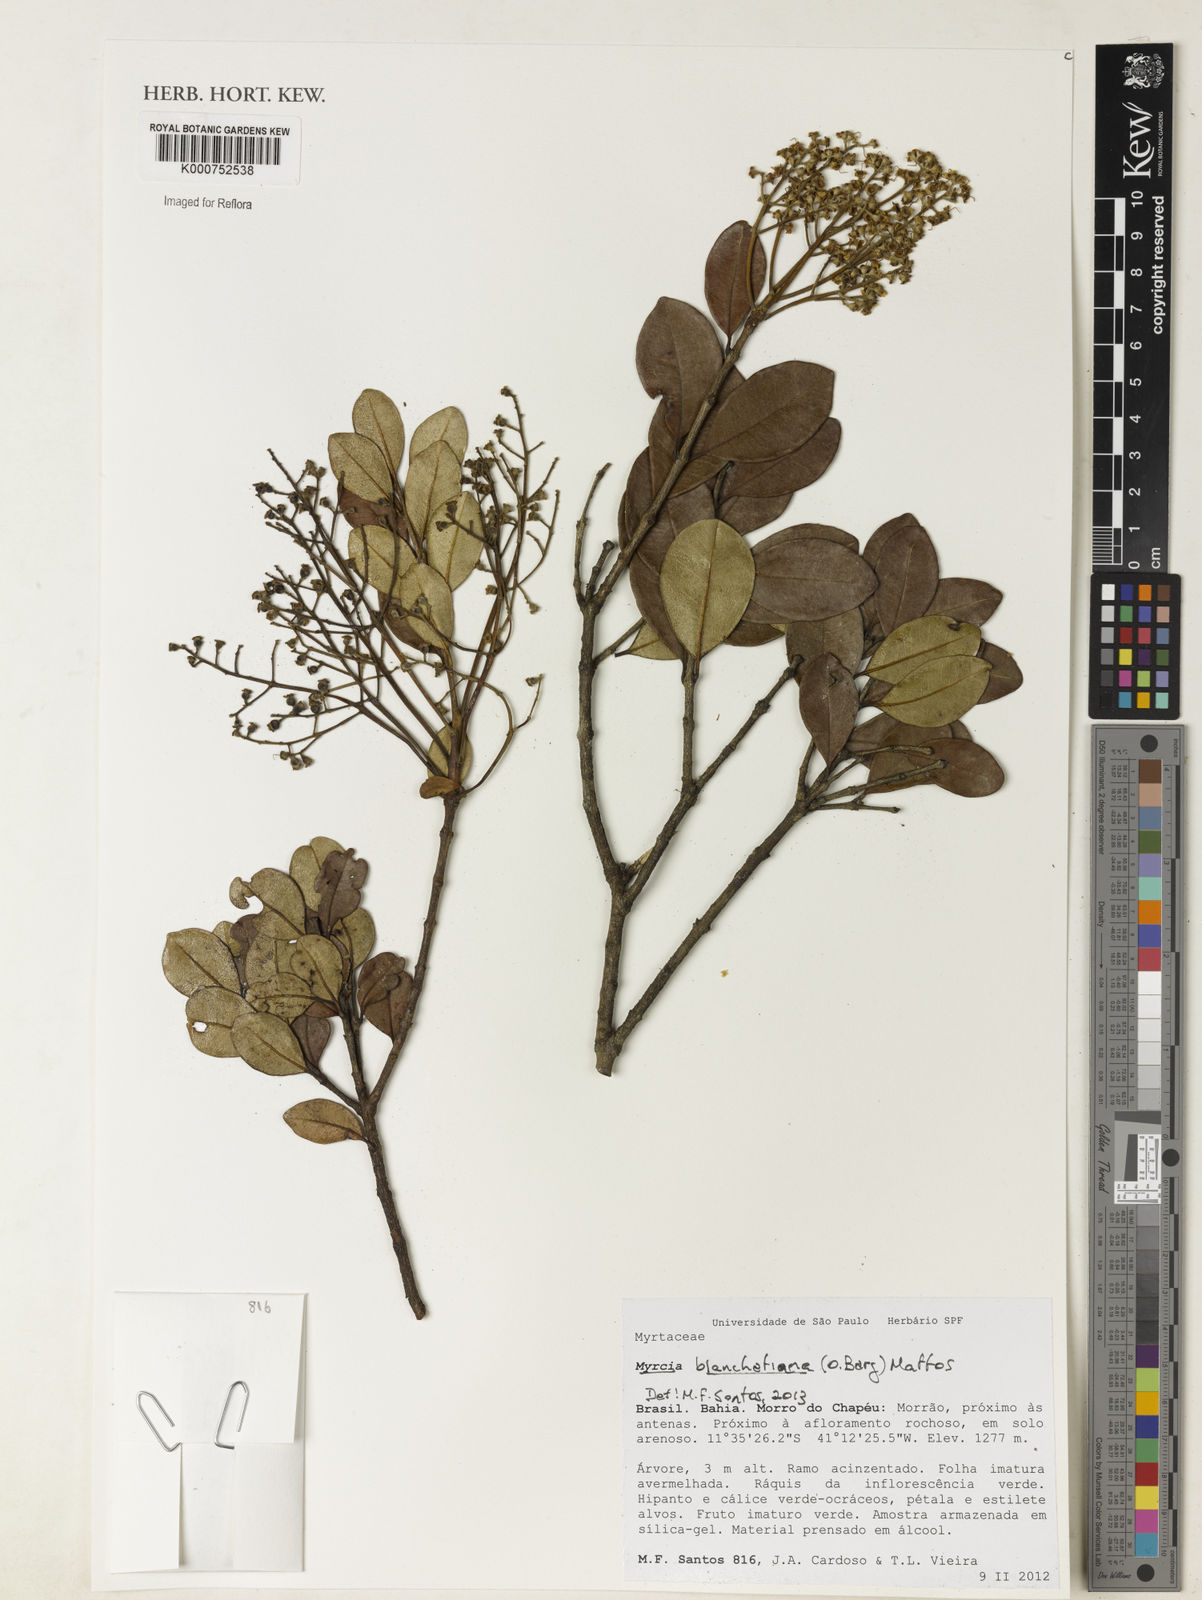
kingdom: Plantae
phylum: Tracheophyta
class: Magnoliopsida
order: Myrtales
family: Myrtaceae
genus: Myrcia
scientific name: Myrcia blanchetiana
